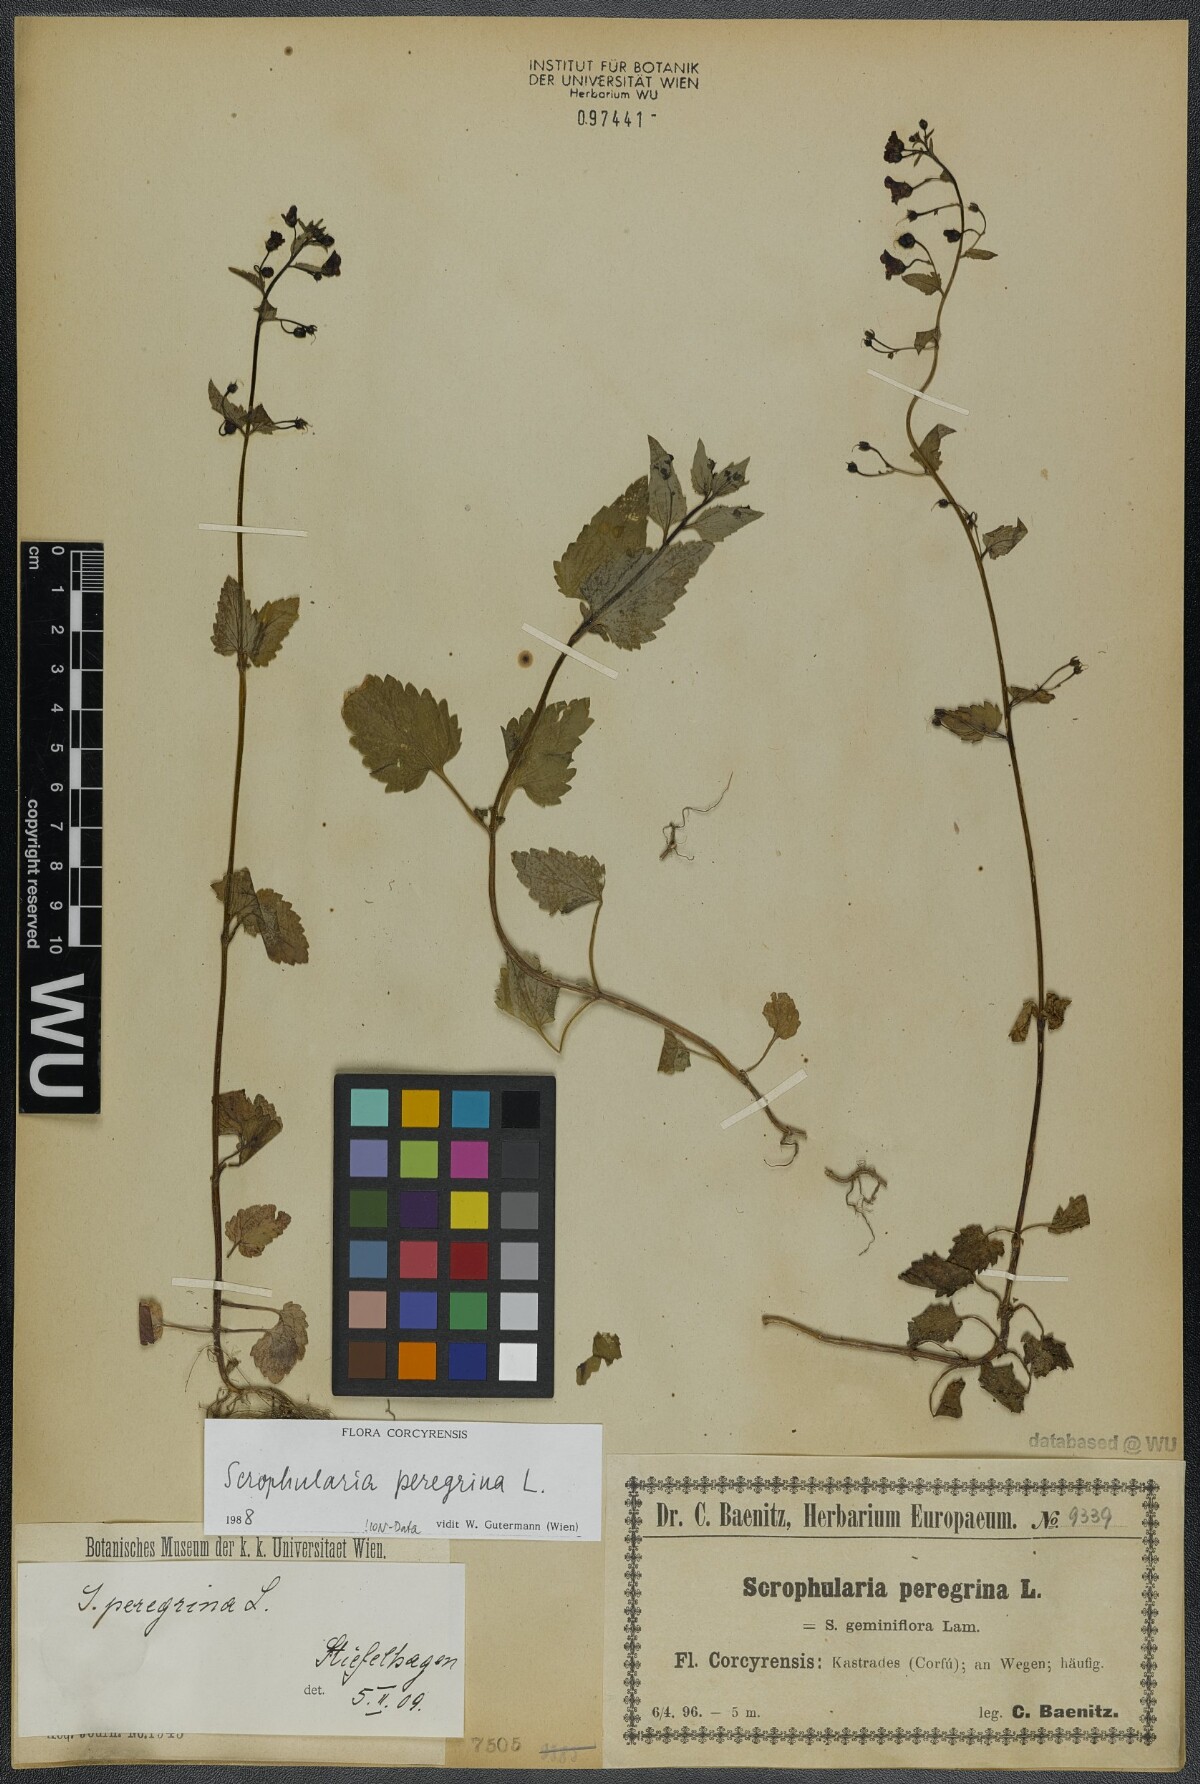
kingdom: Plantae
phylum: Tracheophyta
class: Magnoliopsida
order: Lamiales
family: Scrophulariaceae
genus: Scrophularia
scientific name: Scrophularia peregrina
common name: Mediterranean figwort
